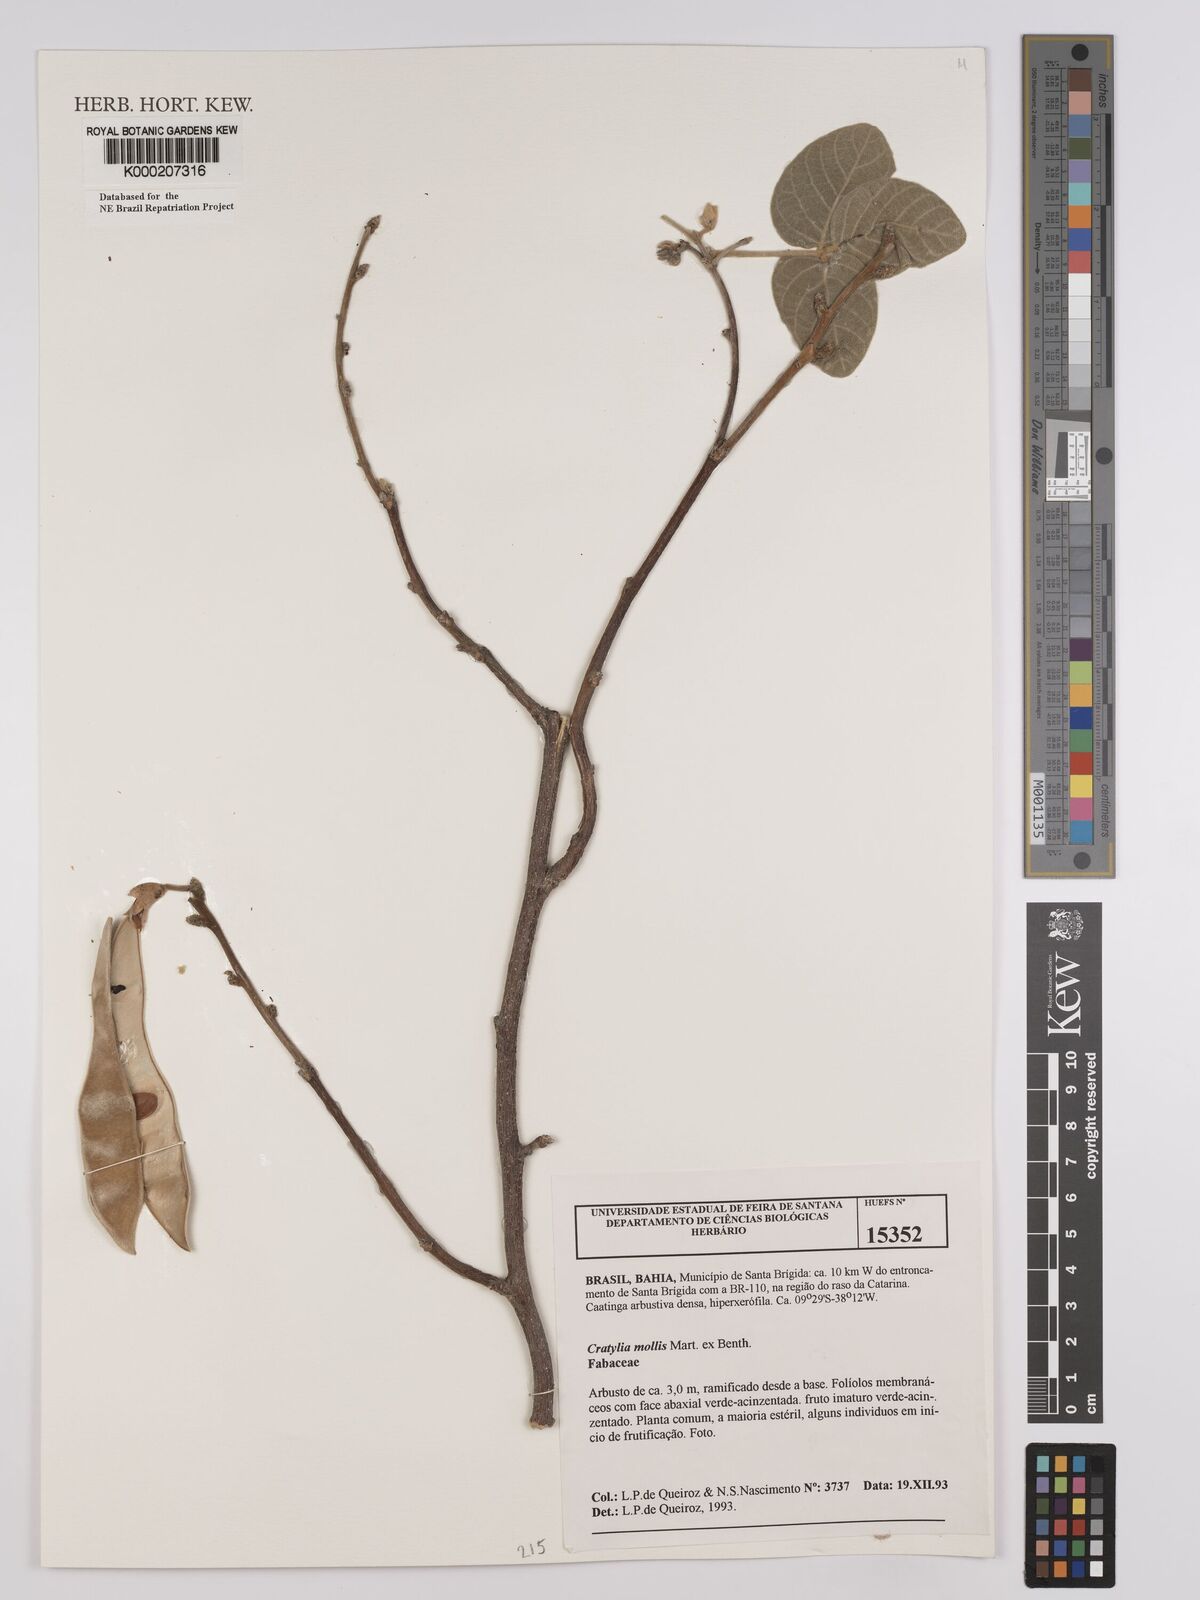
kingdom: Plantae
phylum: Tracheophyta
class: Magnoliopsida
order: Fabales
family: Fabaceae
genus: Cratylia
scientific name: Cratylia mollis
